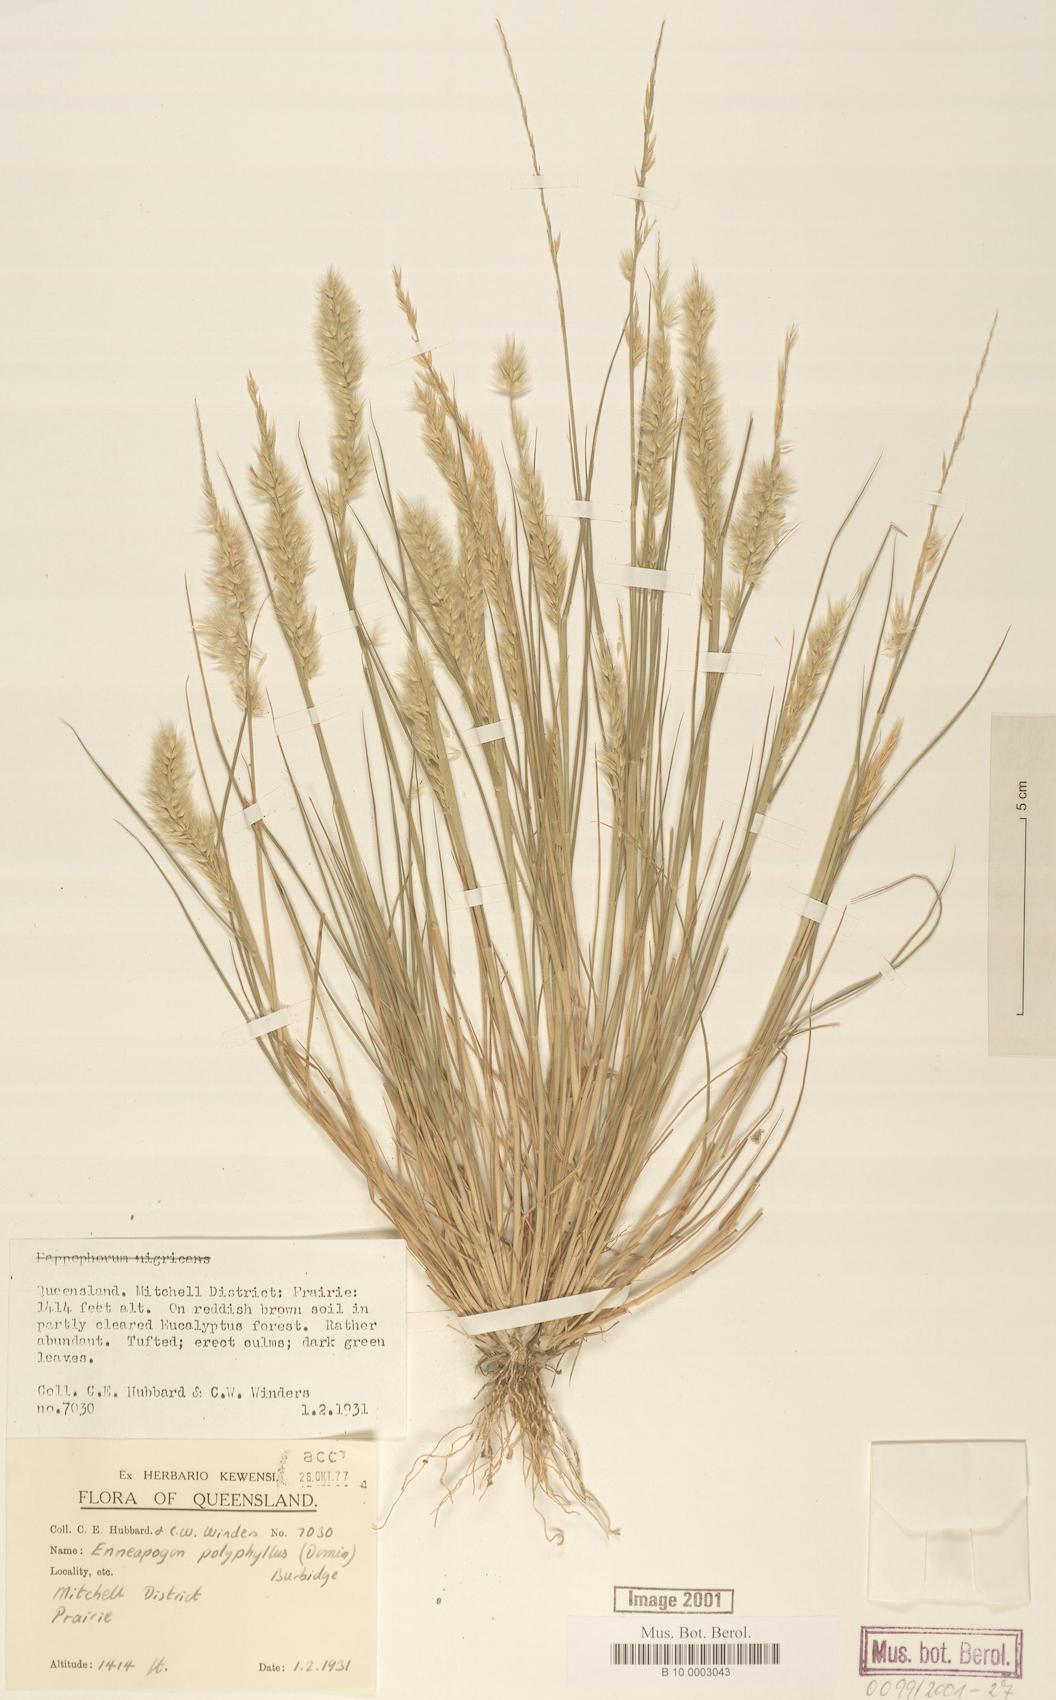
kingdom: Plantae
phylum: Tracheophyta
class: Liliopsida
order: Poales
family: Poaceae
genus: Enneapogon
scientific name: Enneapogon polyphyllus
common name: Leafy nineawn
